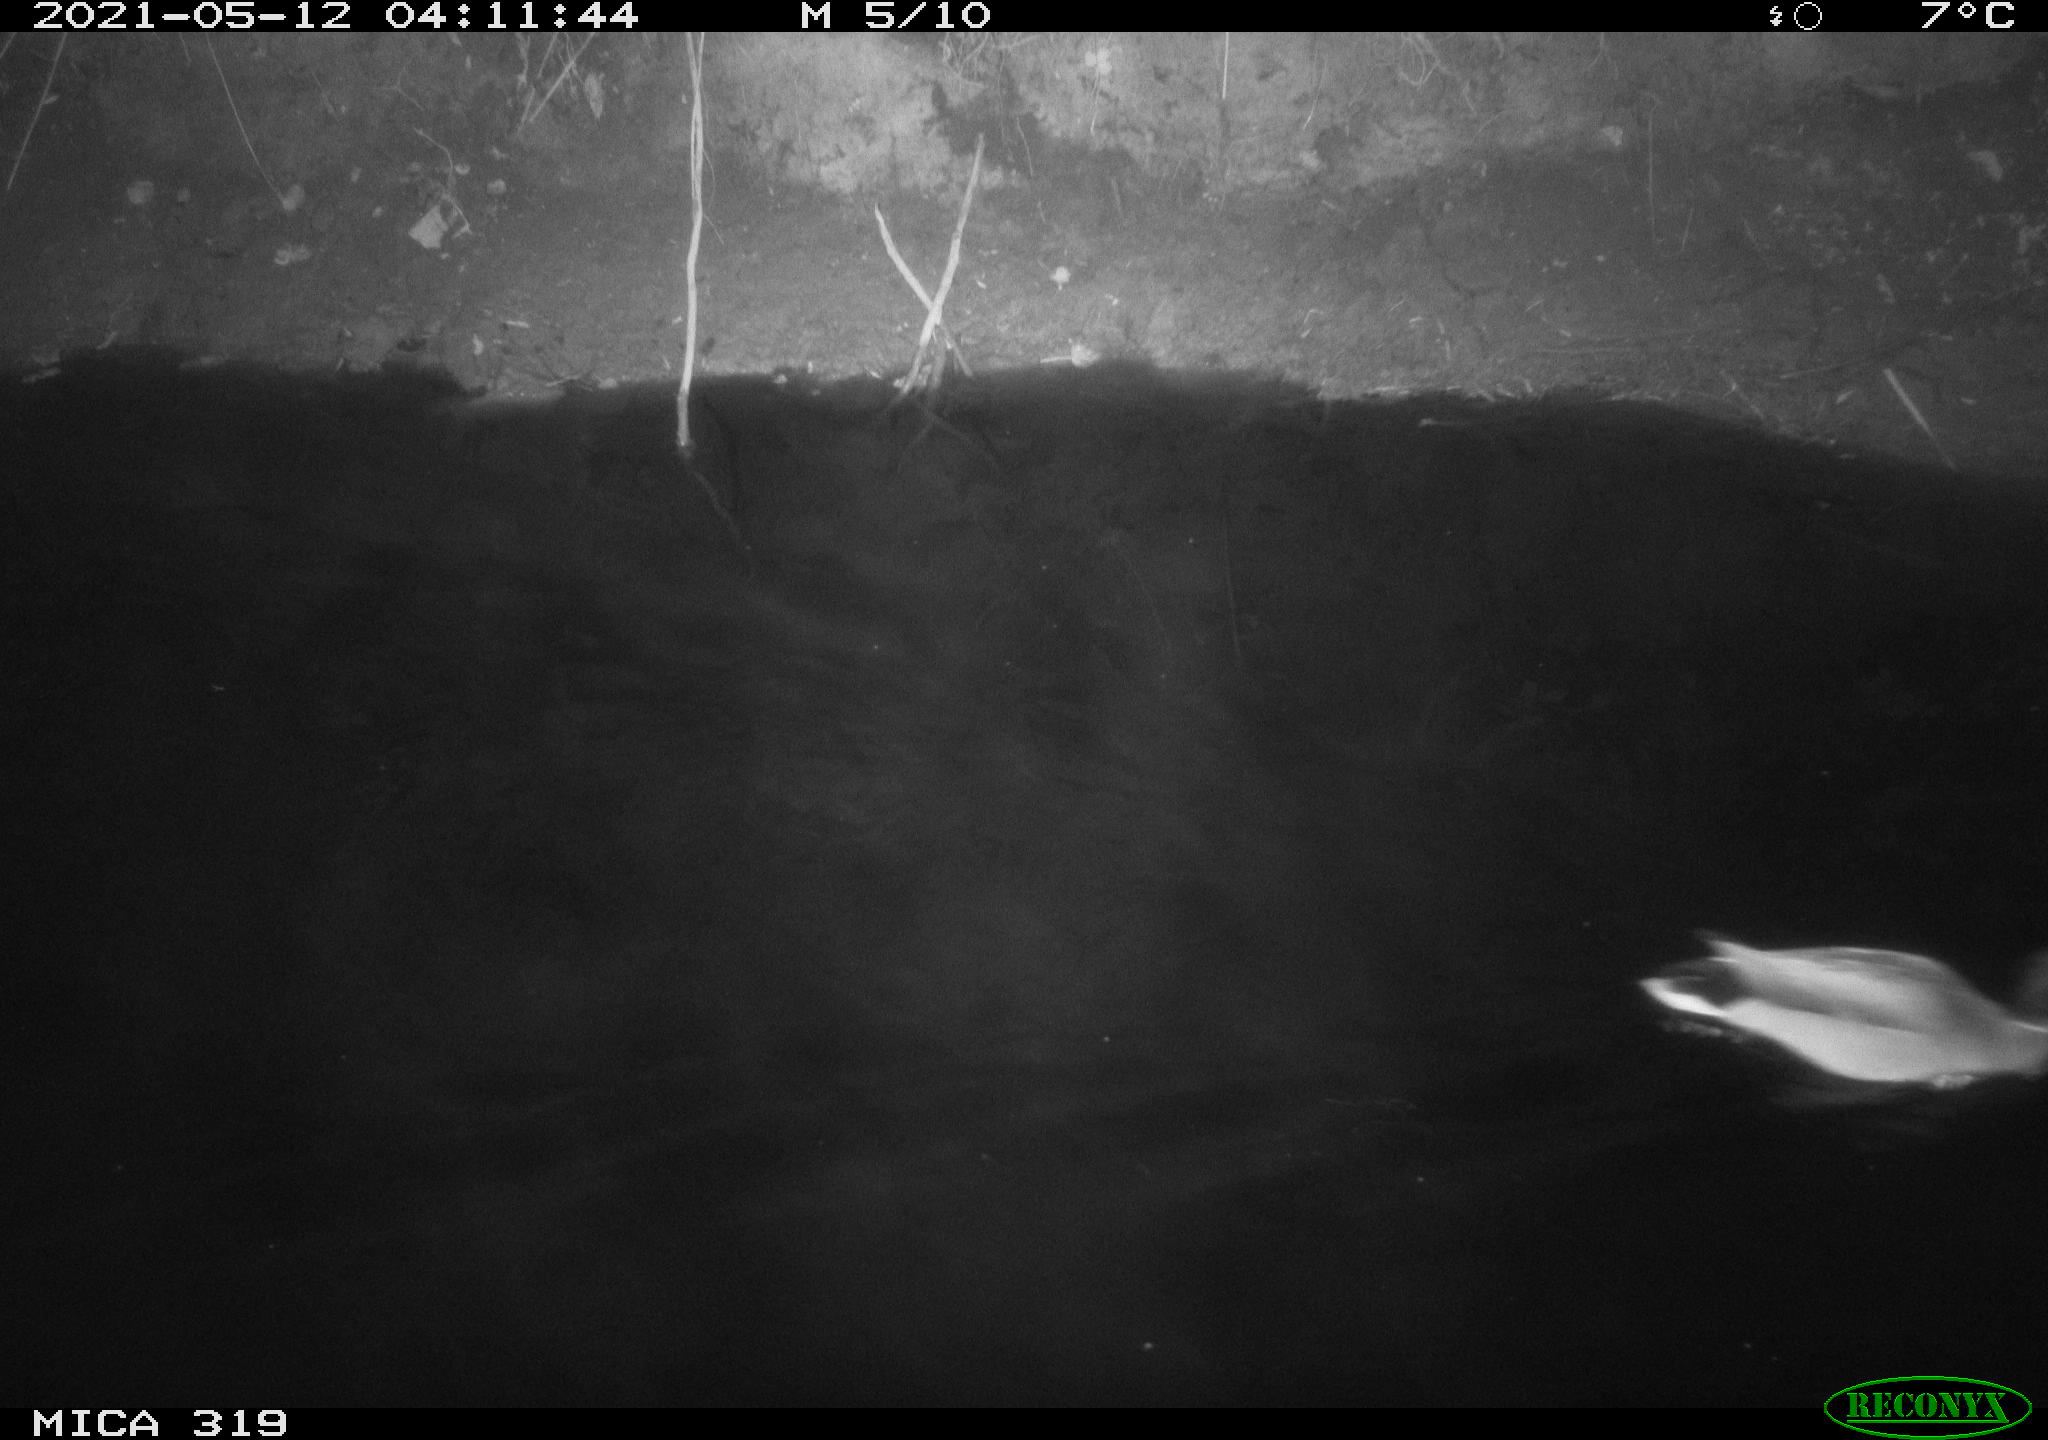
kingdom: Animalia
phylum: Chordata
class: Aves
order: Anseriformes
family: Anatidae
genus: Anas
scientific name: Anas platyrhynchos
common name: Mallard
